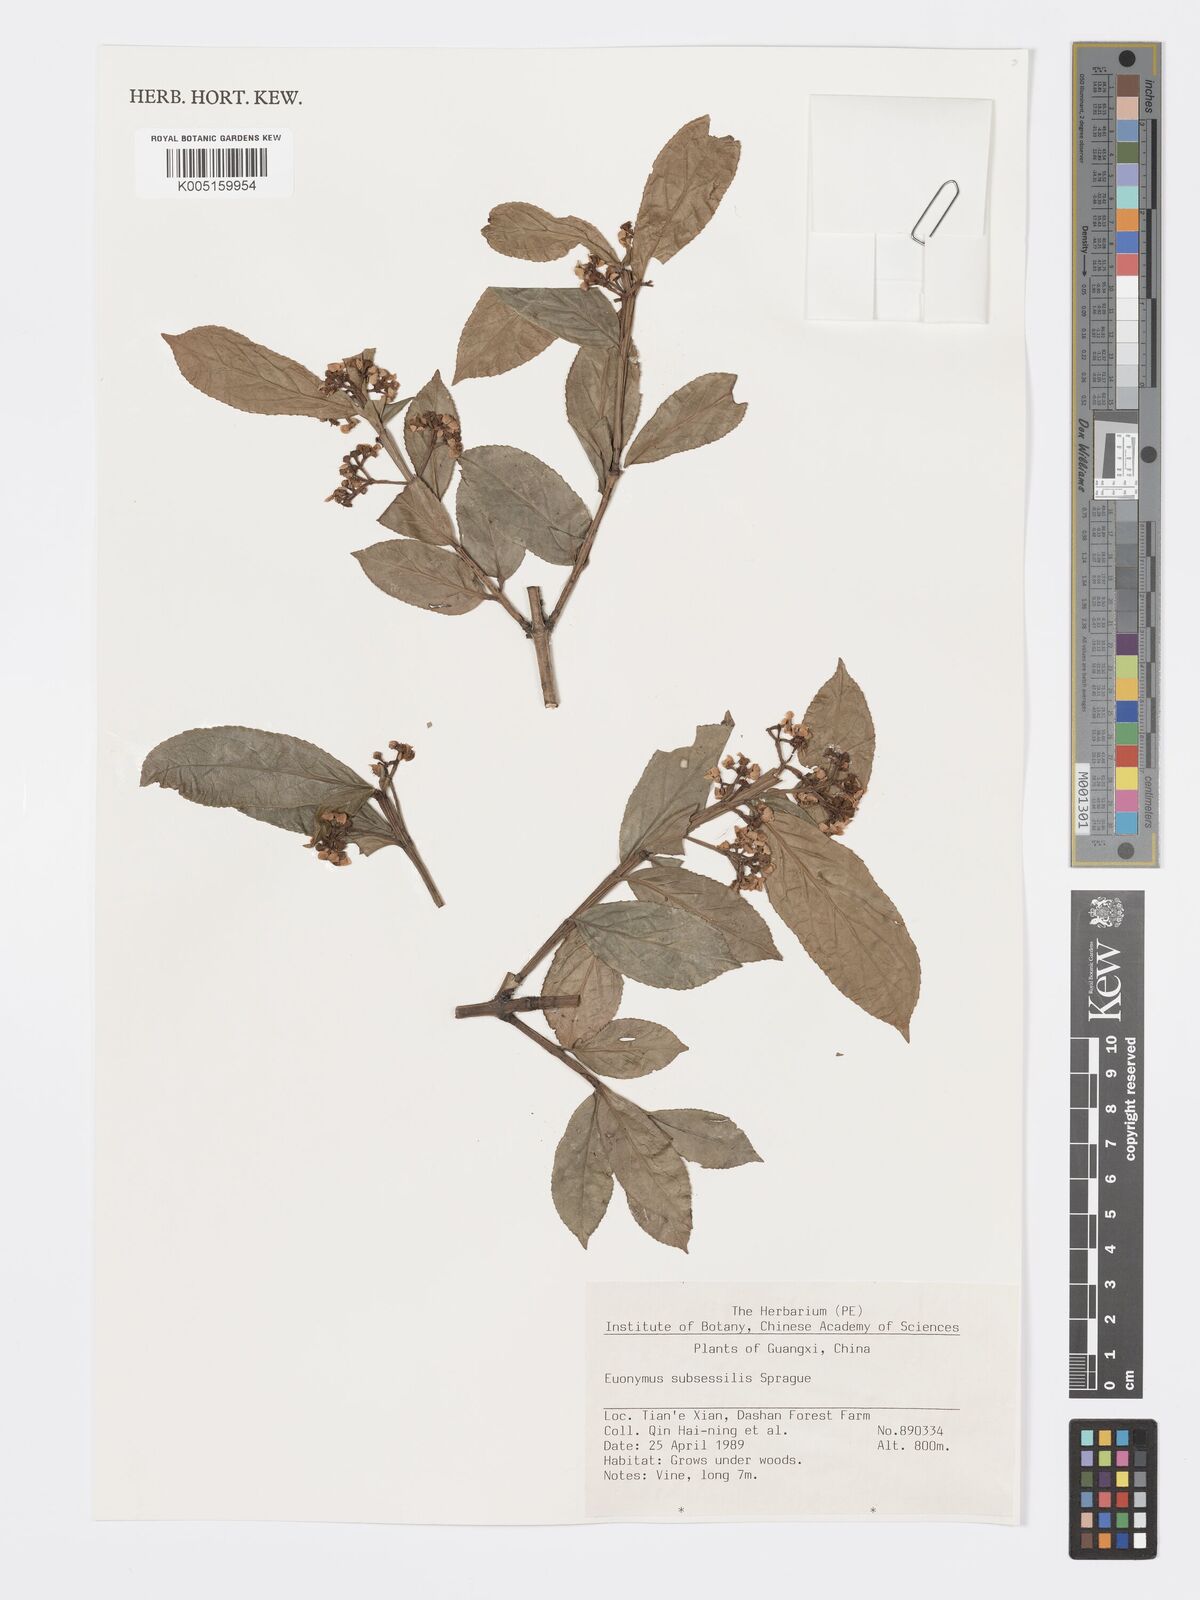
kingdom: Plantae
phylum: Tracheophyta
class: Magnoliopsida
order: Celastrales
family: Celastraceae
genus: Euonymus
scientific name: Euonymus echinatus
